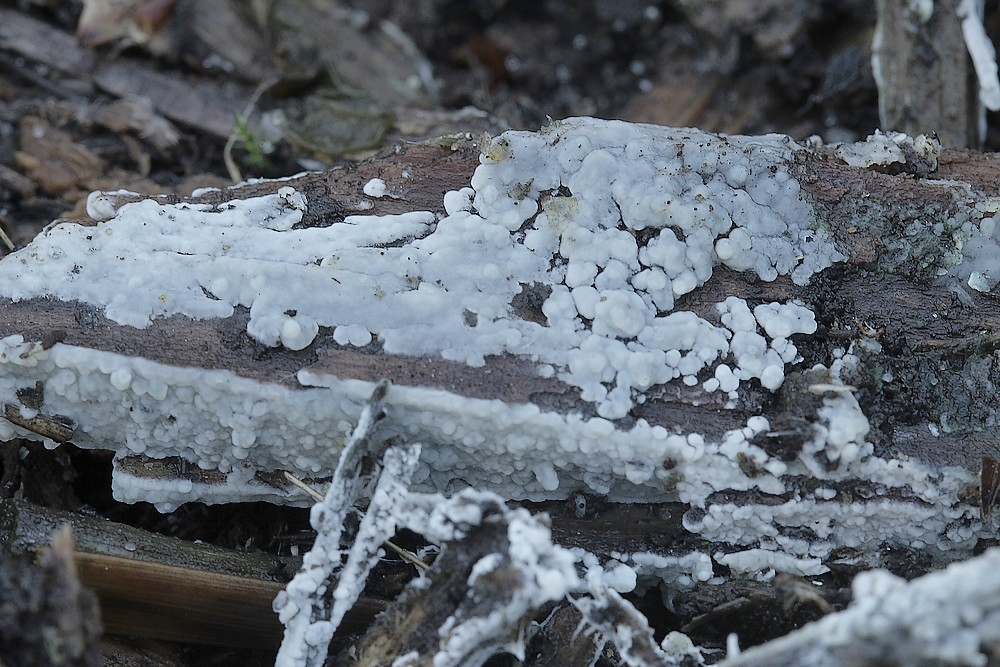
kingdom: Fungi
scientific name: Fungi
